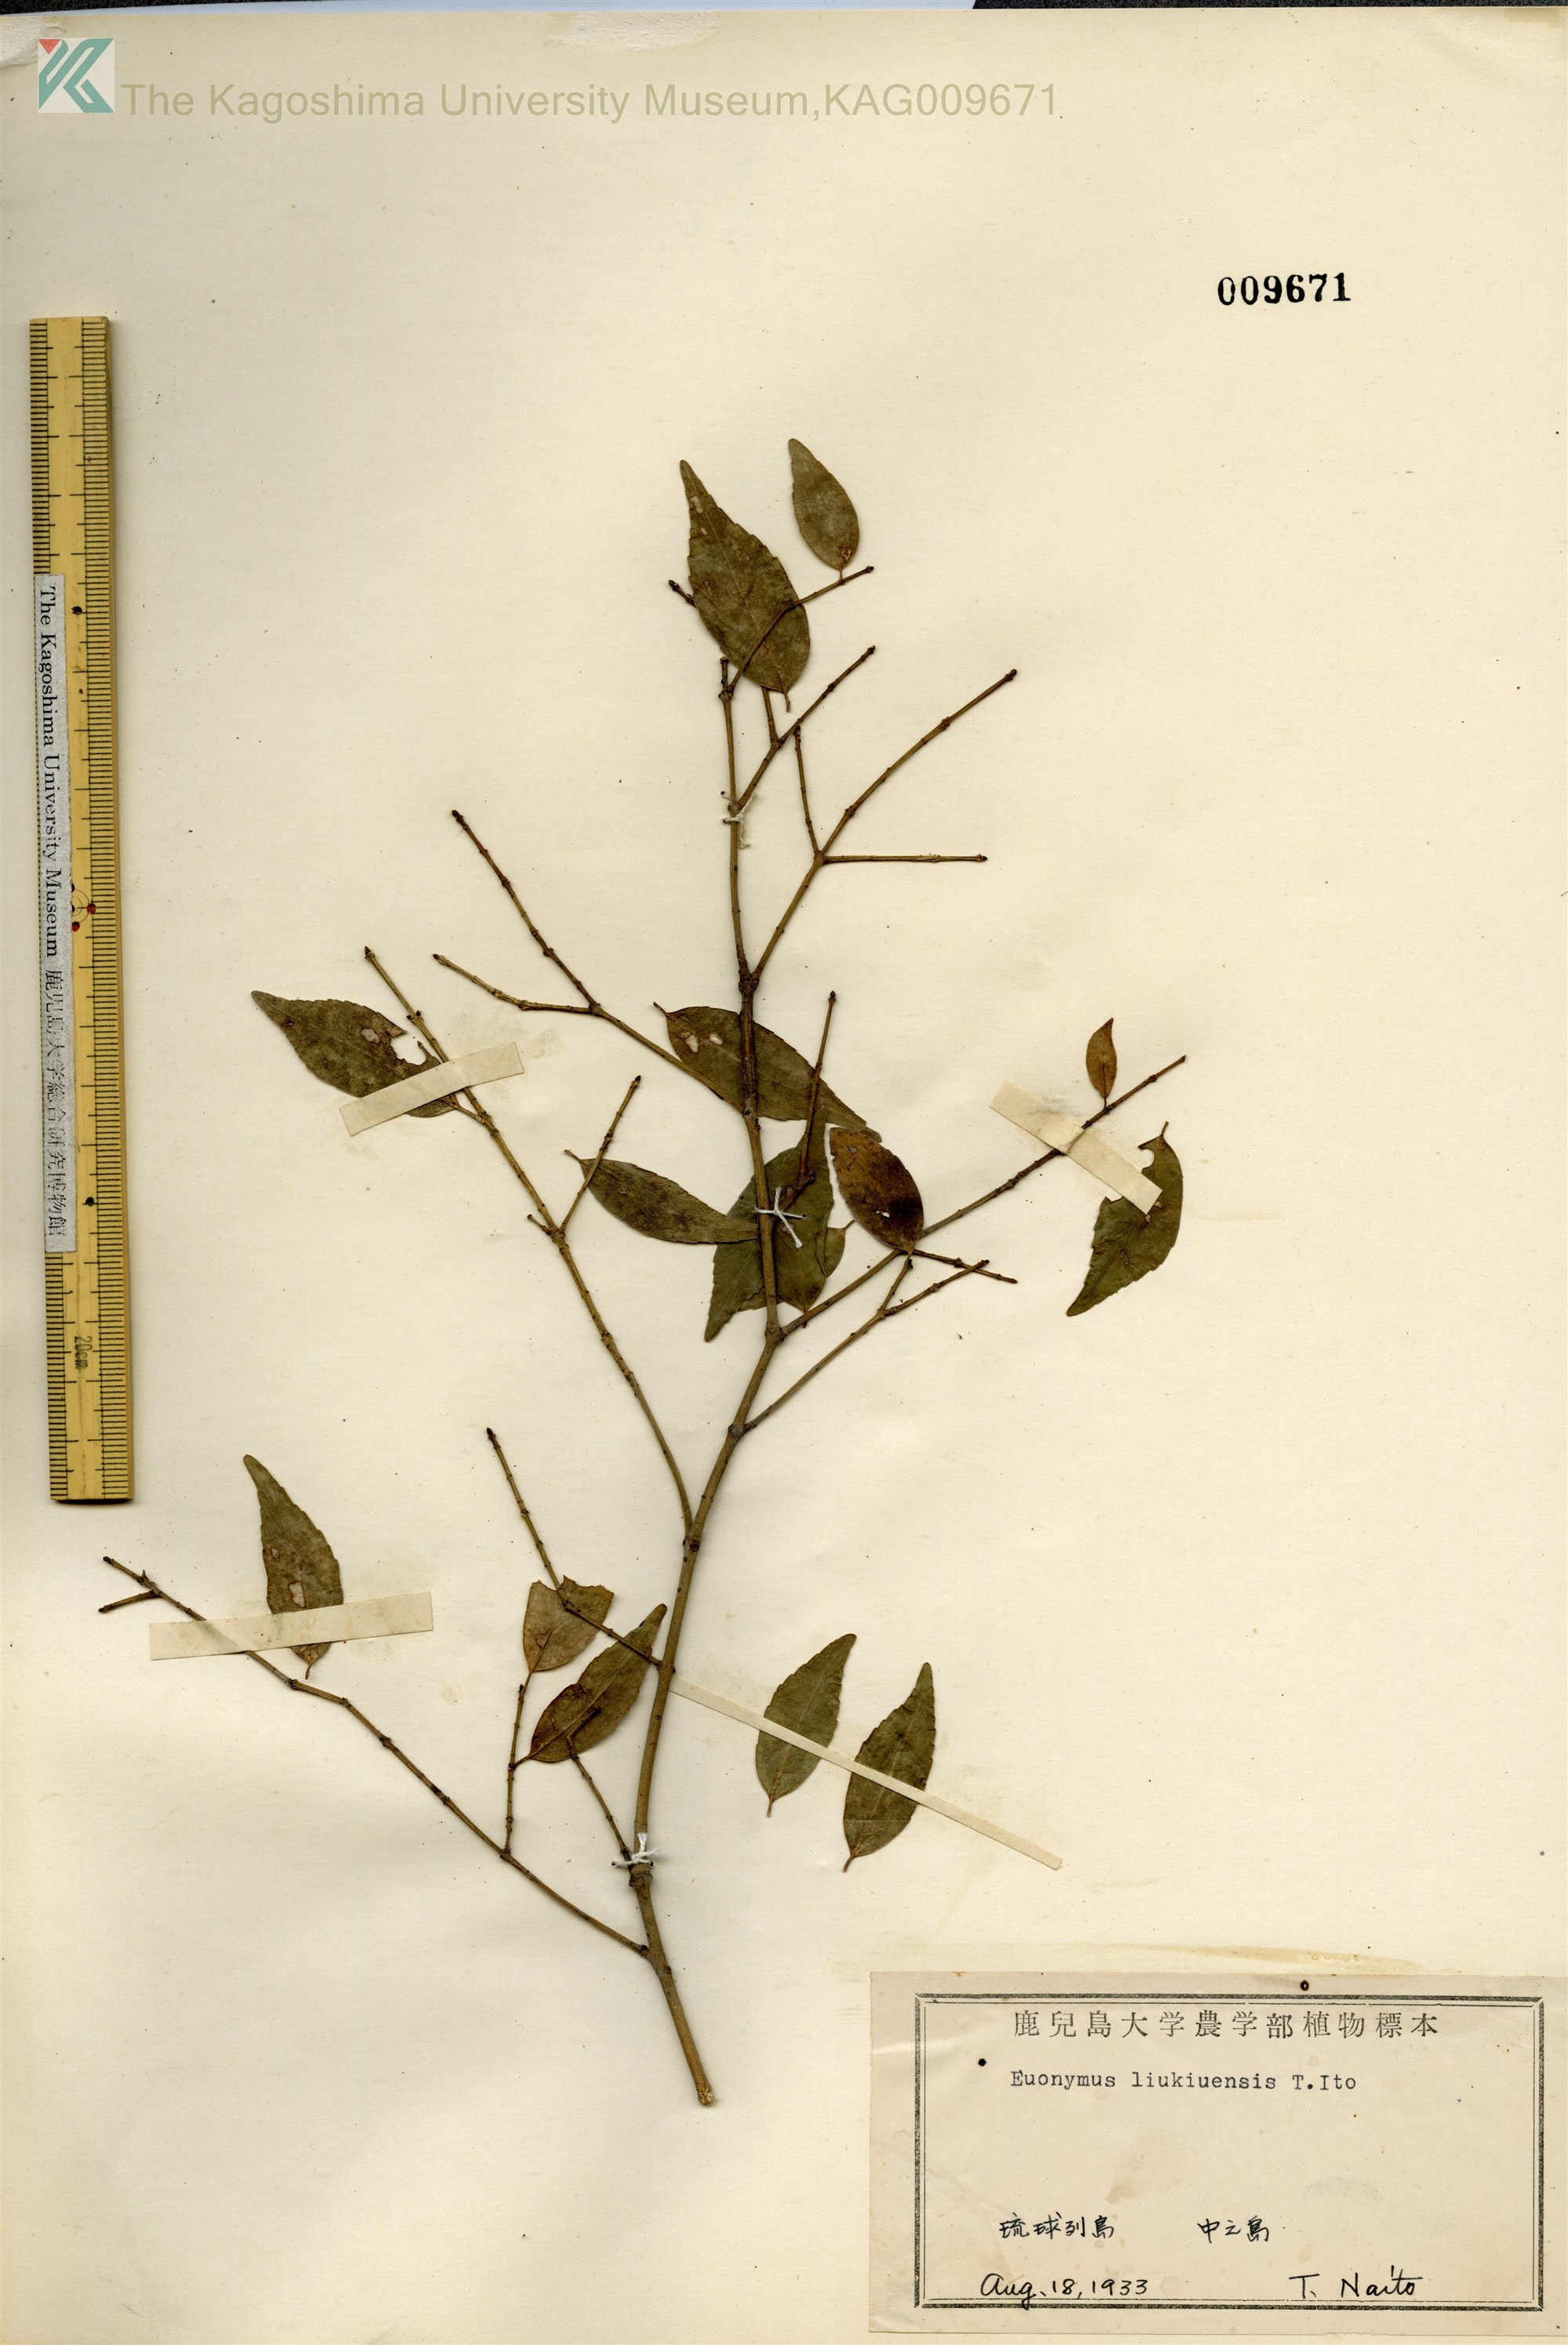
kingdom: Plantae
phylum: Tracheophyta
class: Magnoliopsida
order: Celastrales
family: Celastraceae
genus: Euonymus
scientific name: Euonymus lutchuensis
